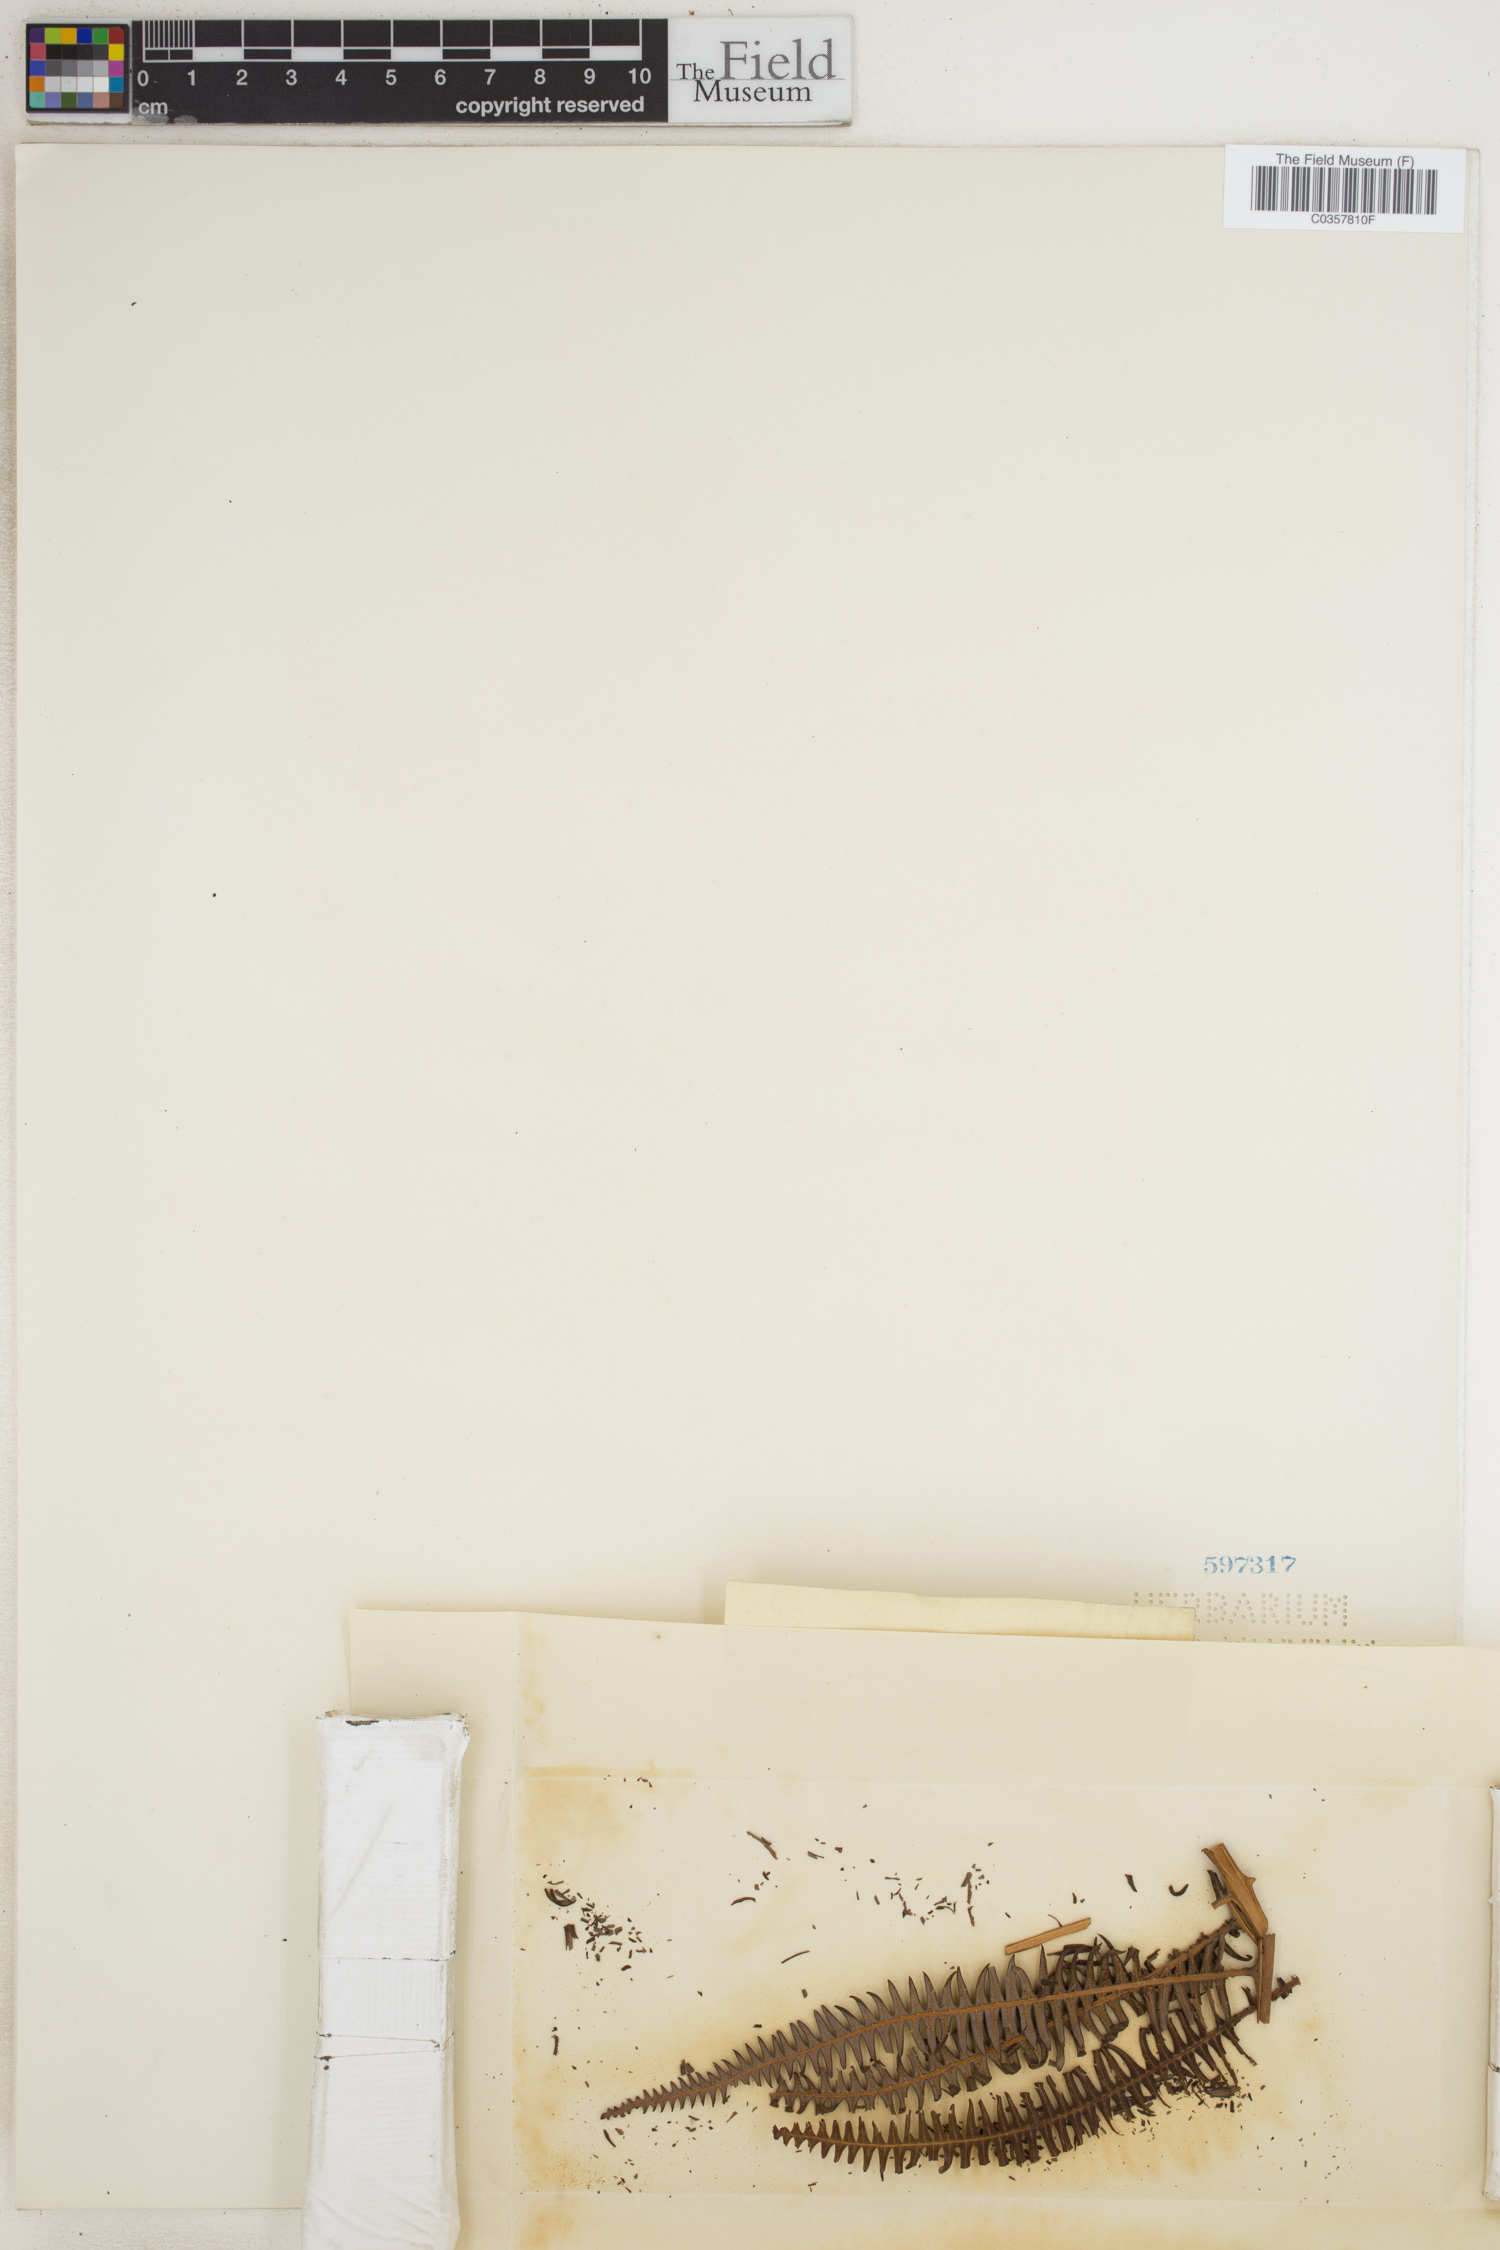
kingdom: Plantae
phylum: Tracheophyta
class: Polypodiopsida
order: Gleicheniales
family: Gleicheniaceae
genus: Gleichenia
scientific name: Gleichenia polypodioides
